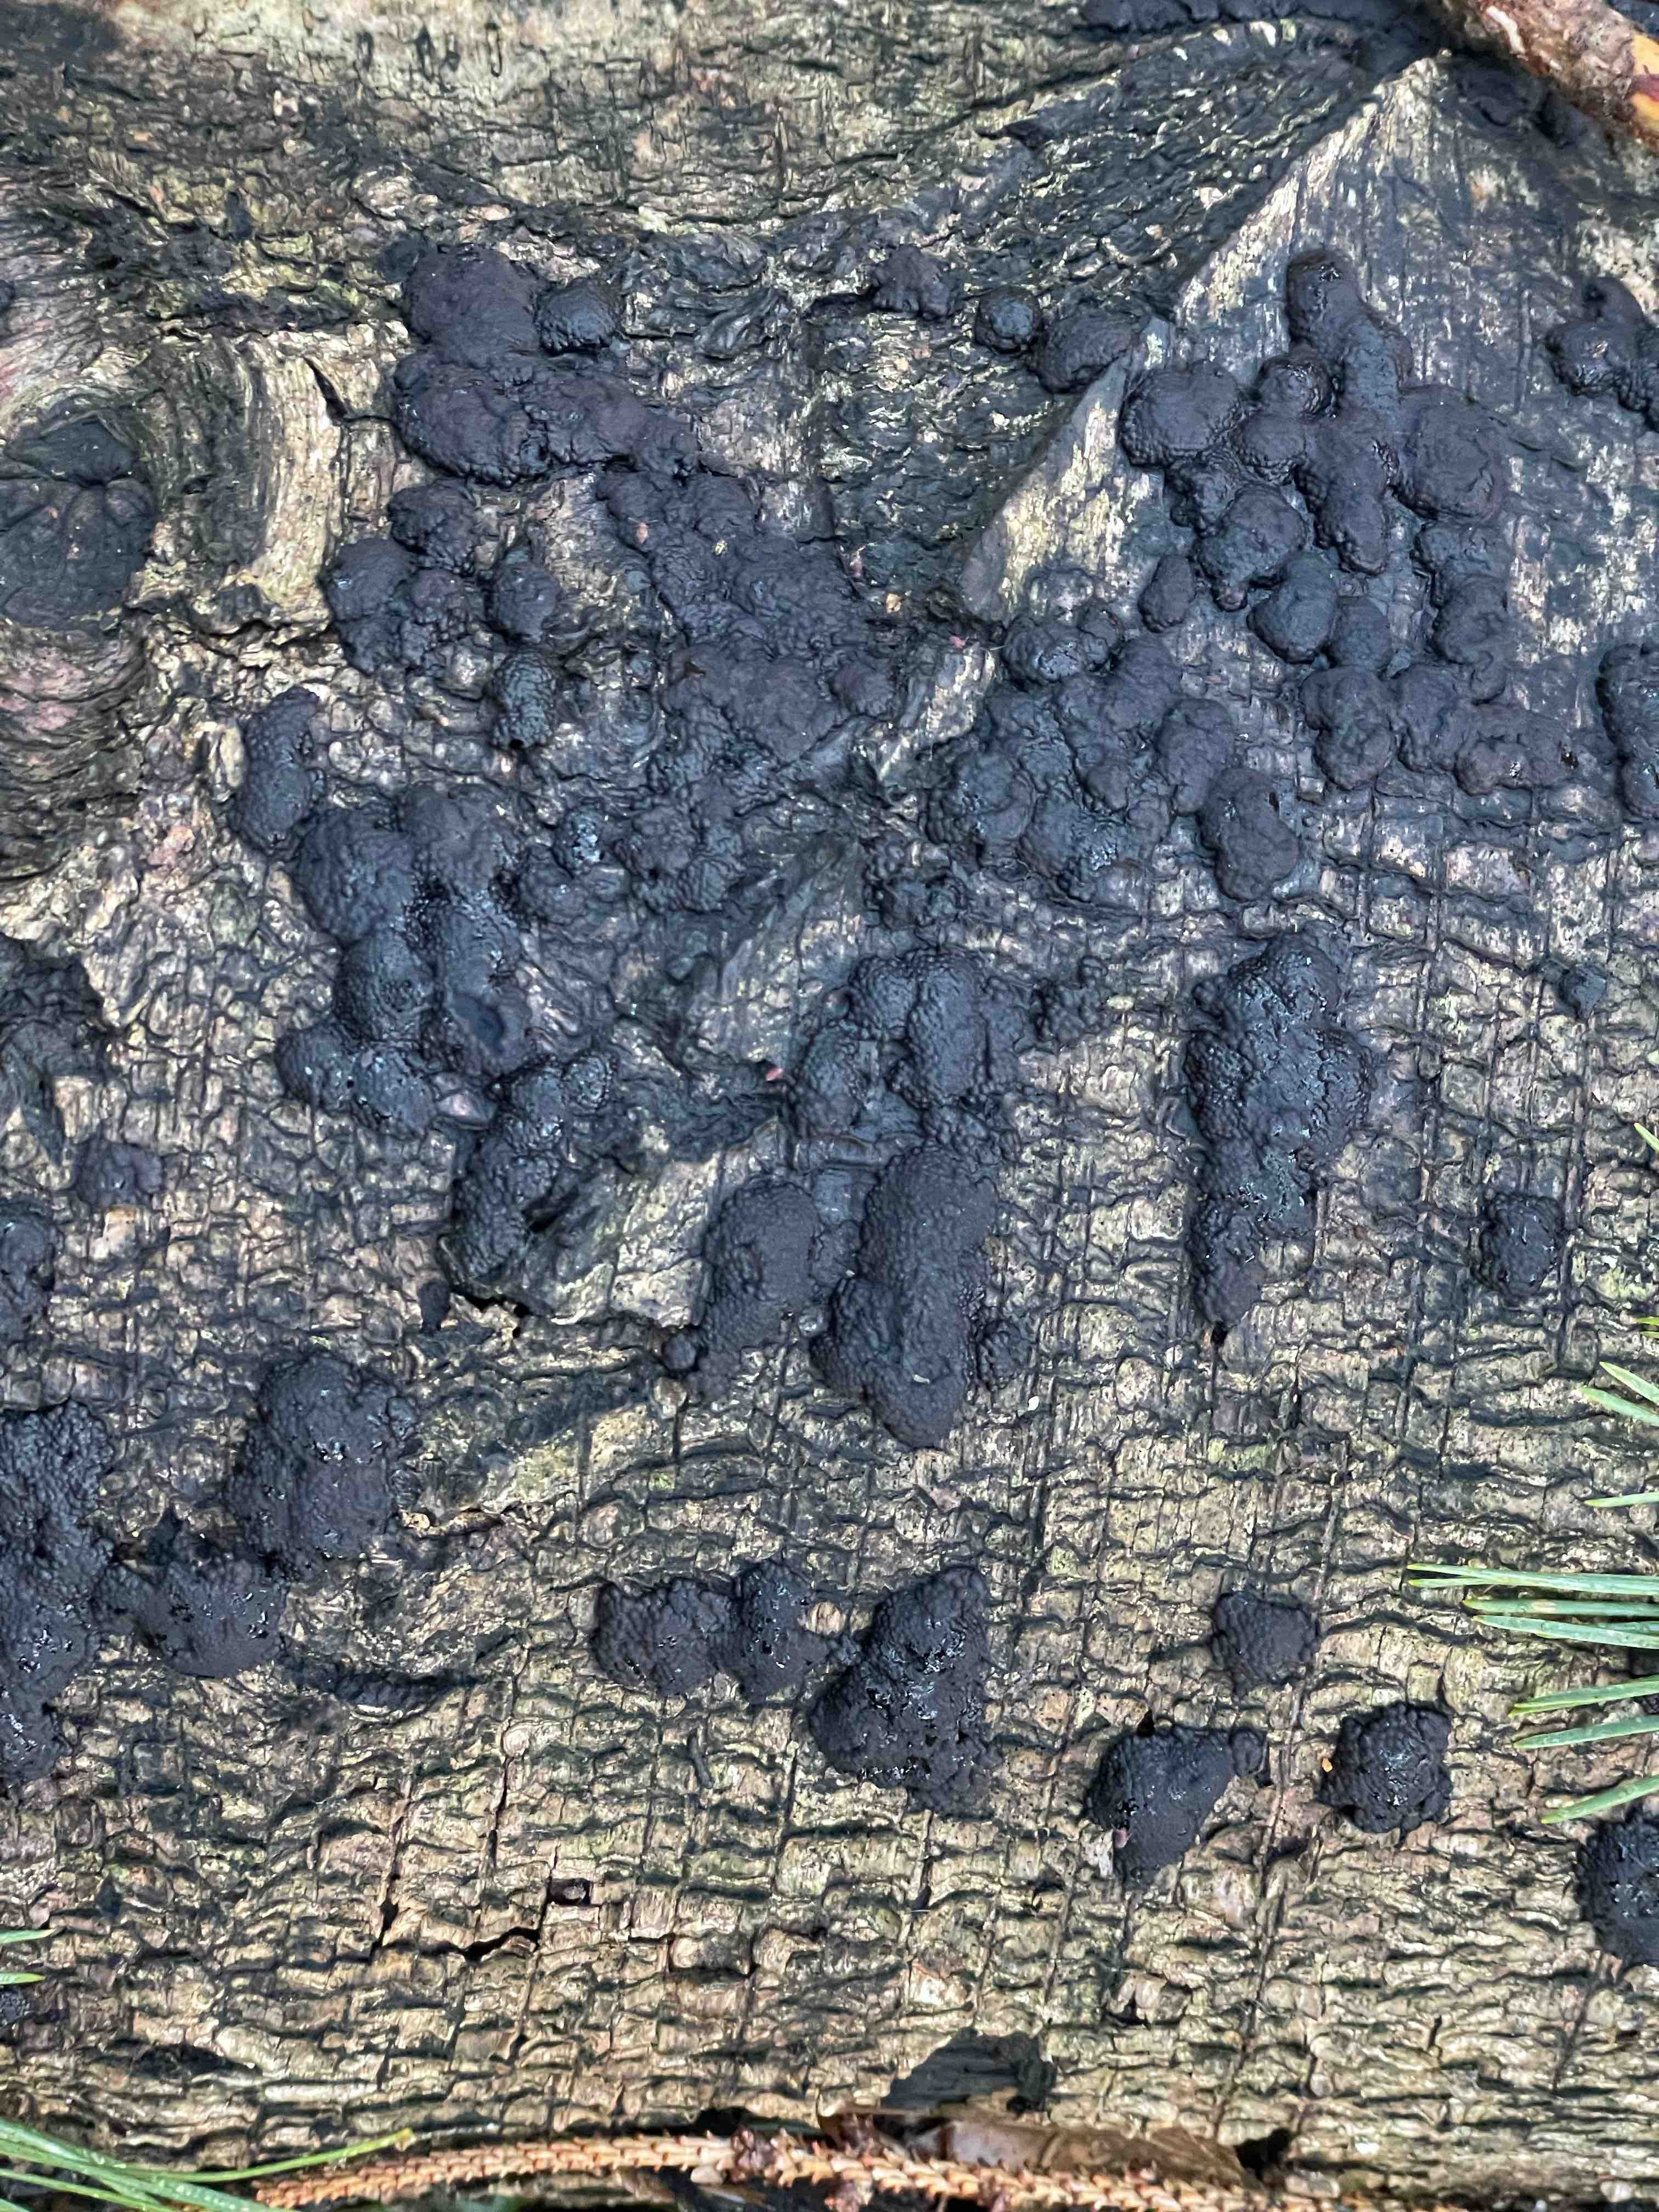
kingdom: Fungi
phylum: Ascomycota
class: Sordariomycetes
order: Xylariales
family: Hypoxylaceae
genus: Jackrogersella
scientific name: Jackrogersella multiformis
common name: foranderlig kulbær
